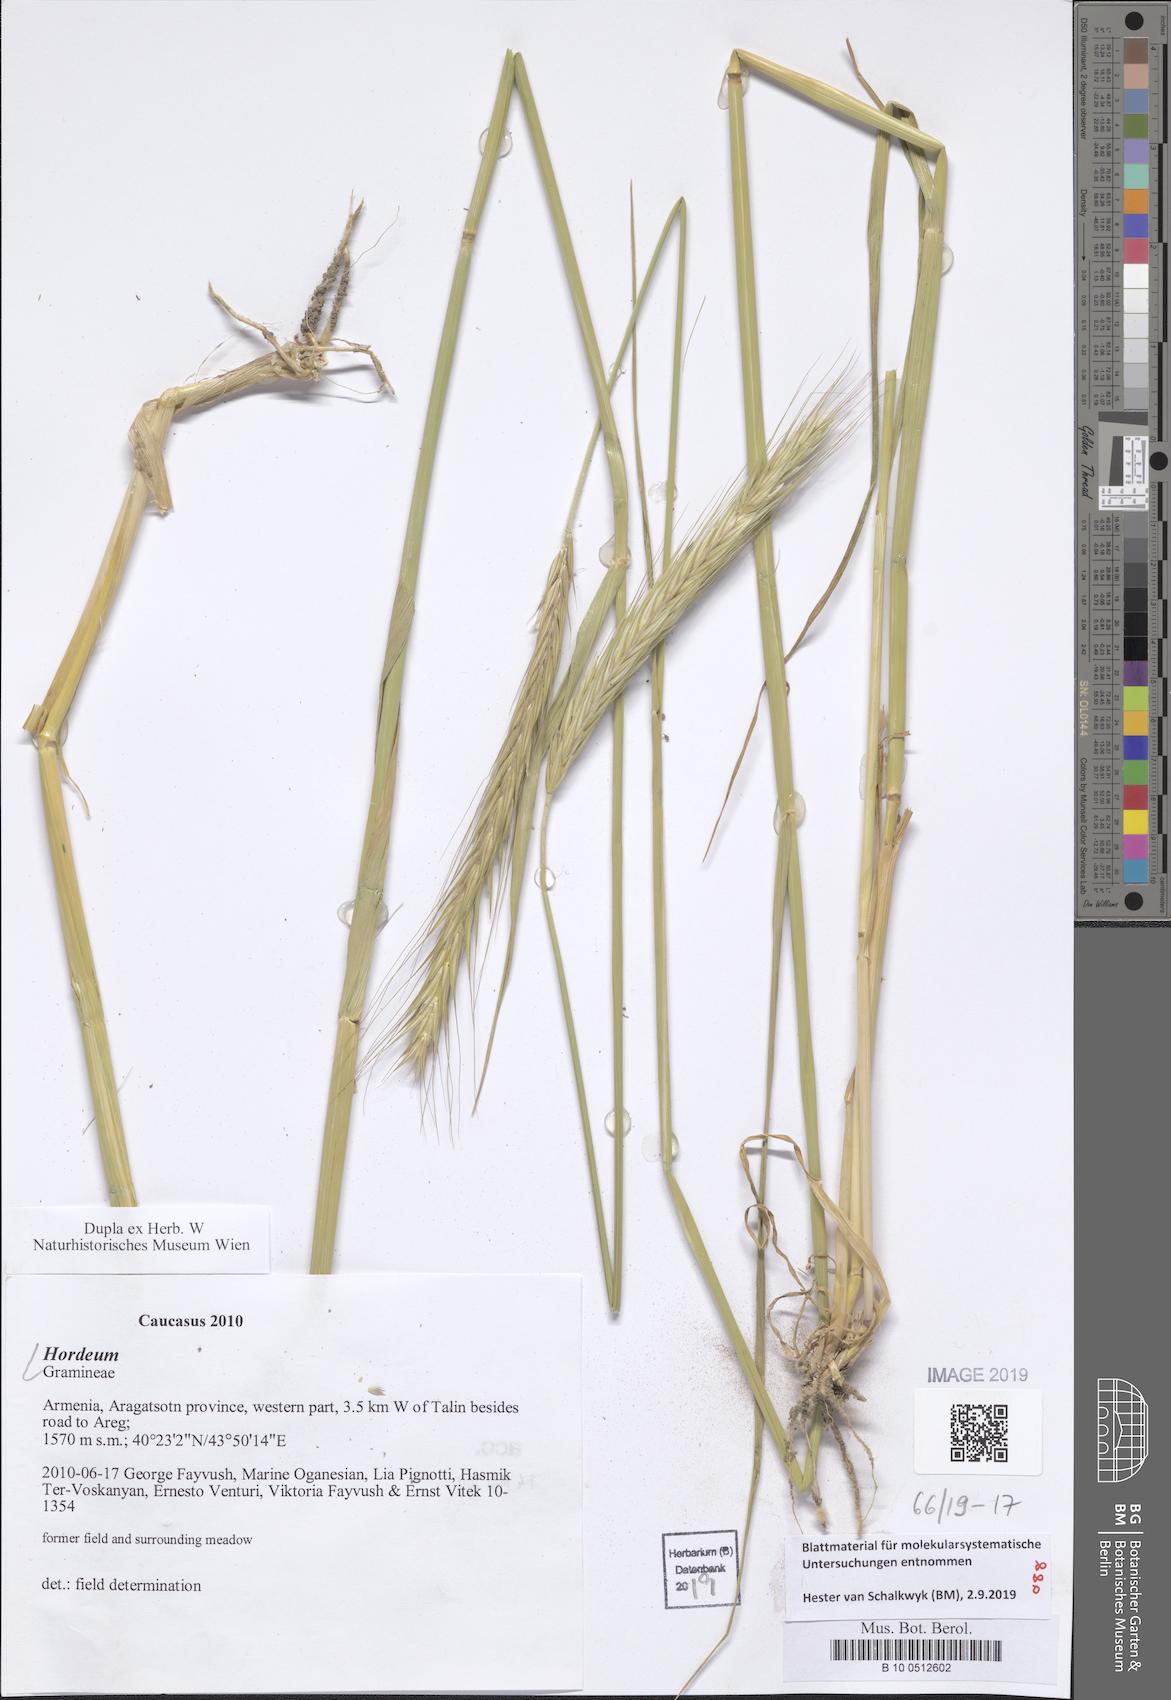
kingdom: Plantae
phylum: Tracheophyta
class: Liliopsida
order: Poales
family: Poaceae
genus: Hordeum
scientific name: Hordeum
